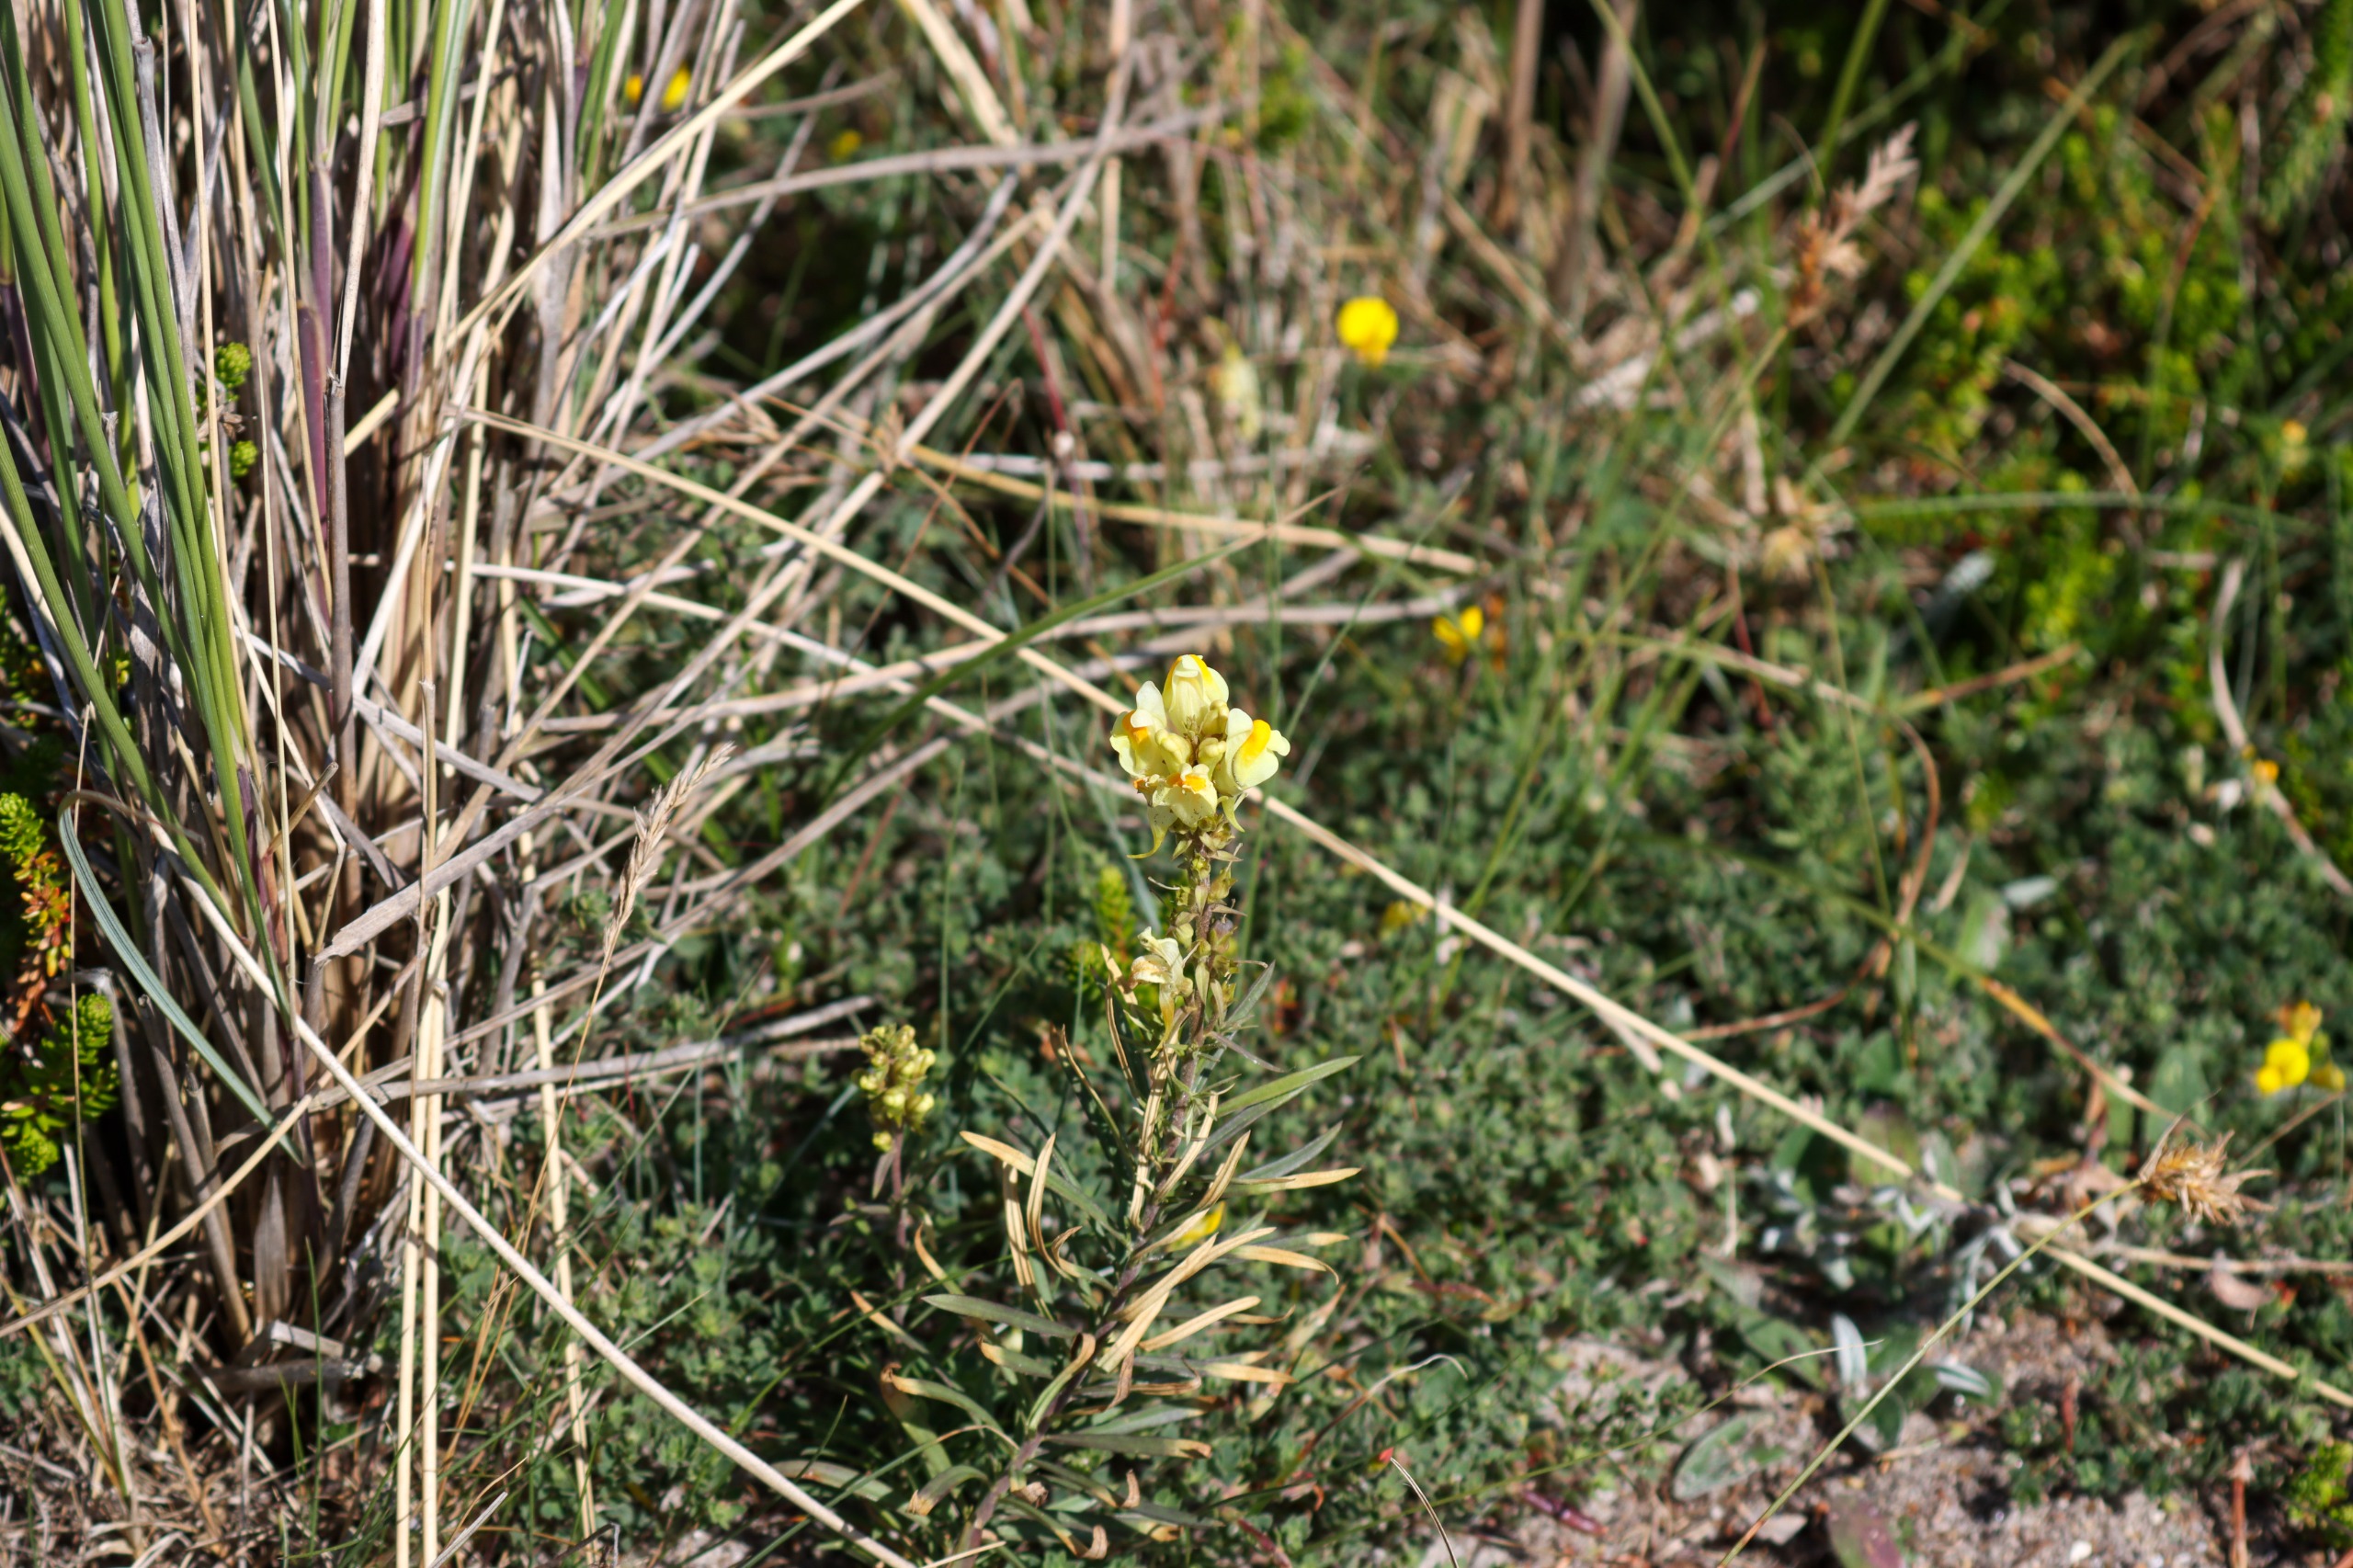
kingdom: Plantae
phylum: Tracheophyta
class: Magnoliopsida
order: Lamiales
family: Plantaginaceae
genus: Linaria
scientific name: Linaria vulgaris
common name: Almindelig torskemund
